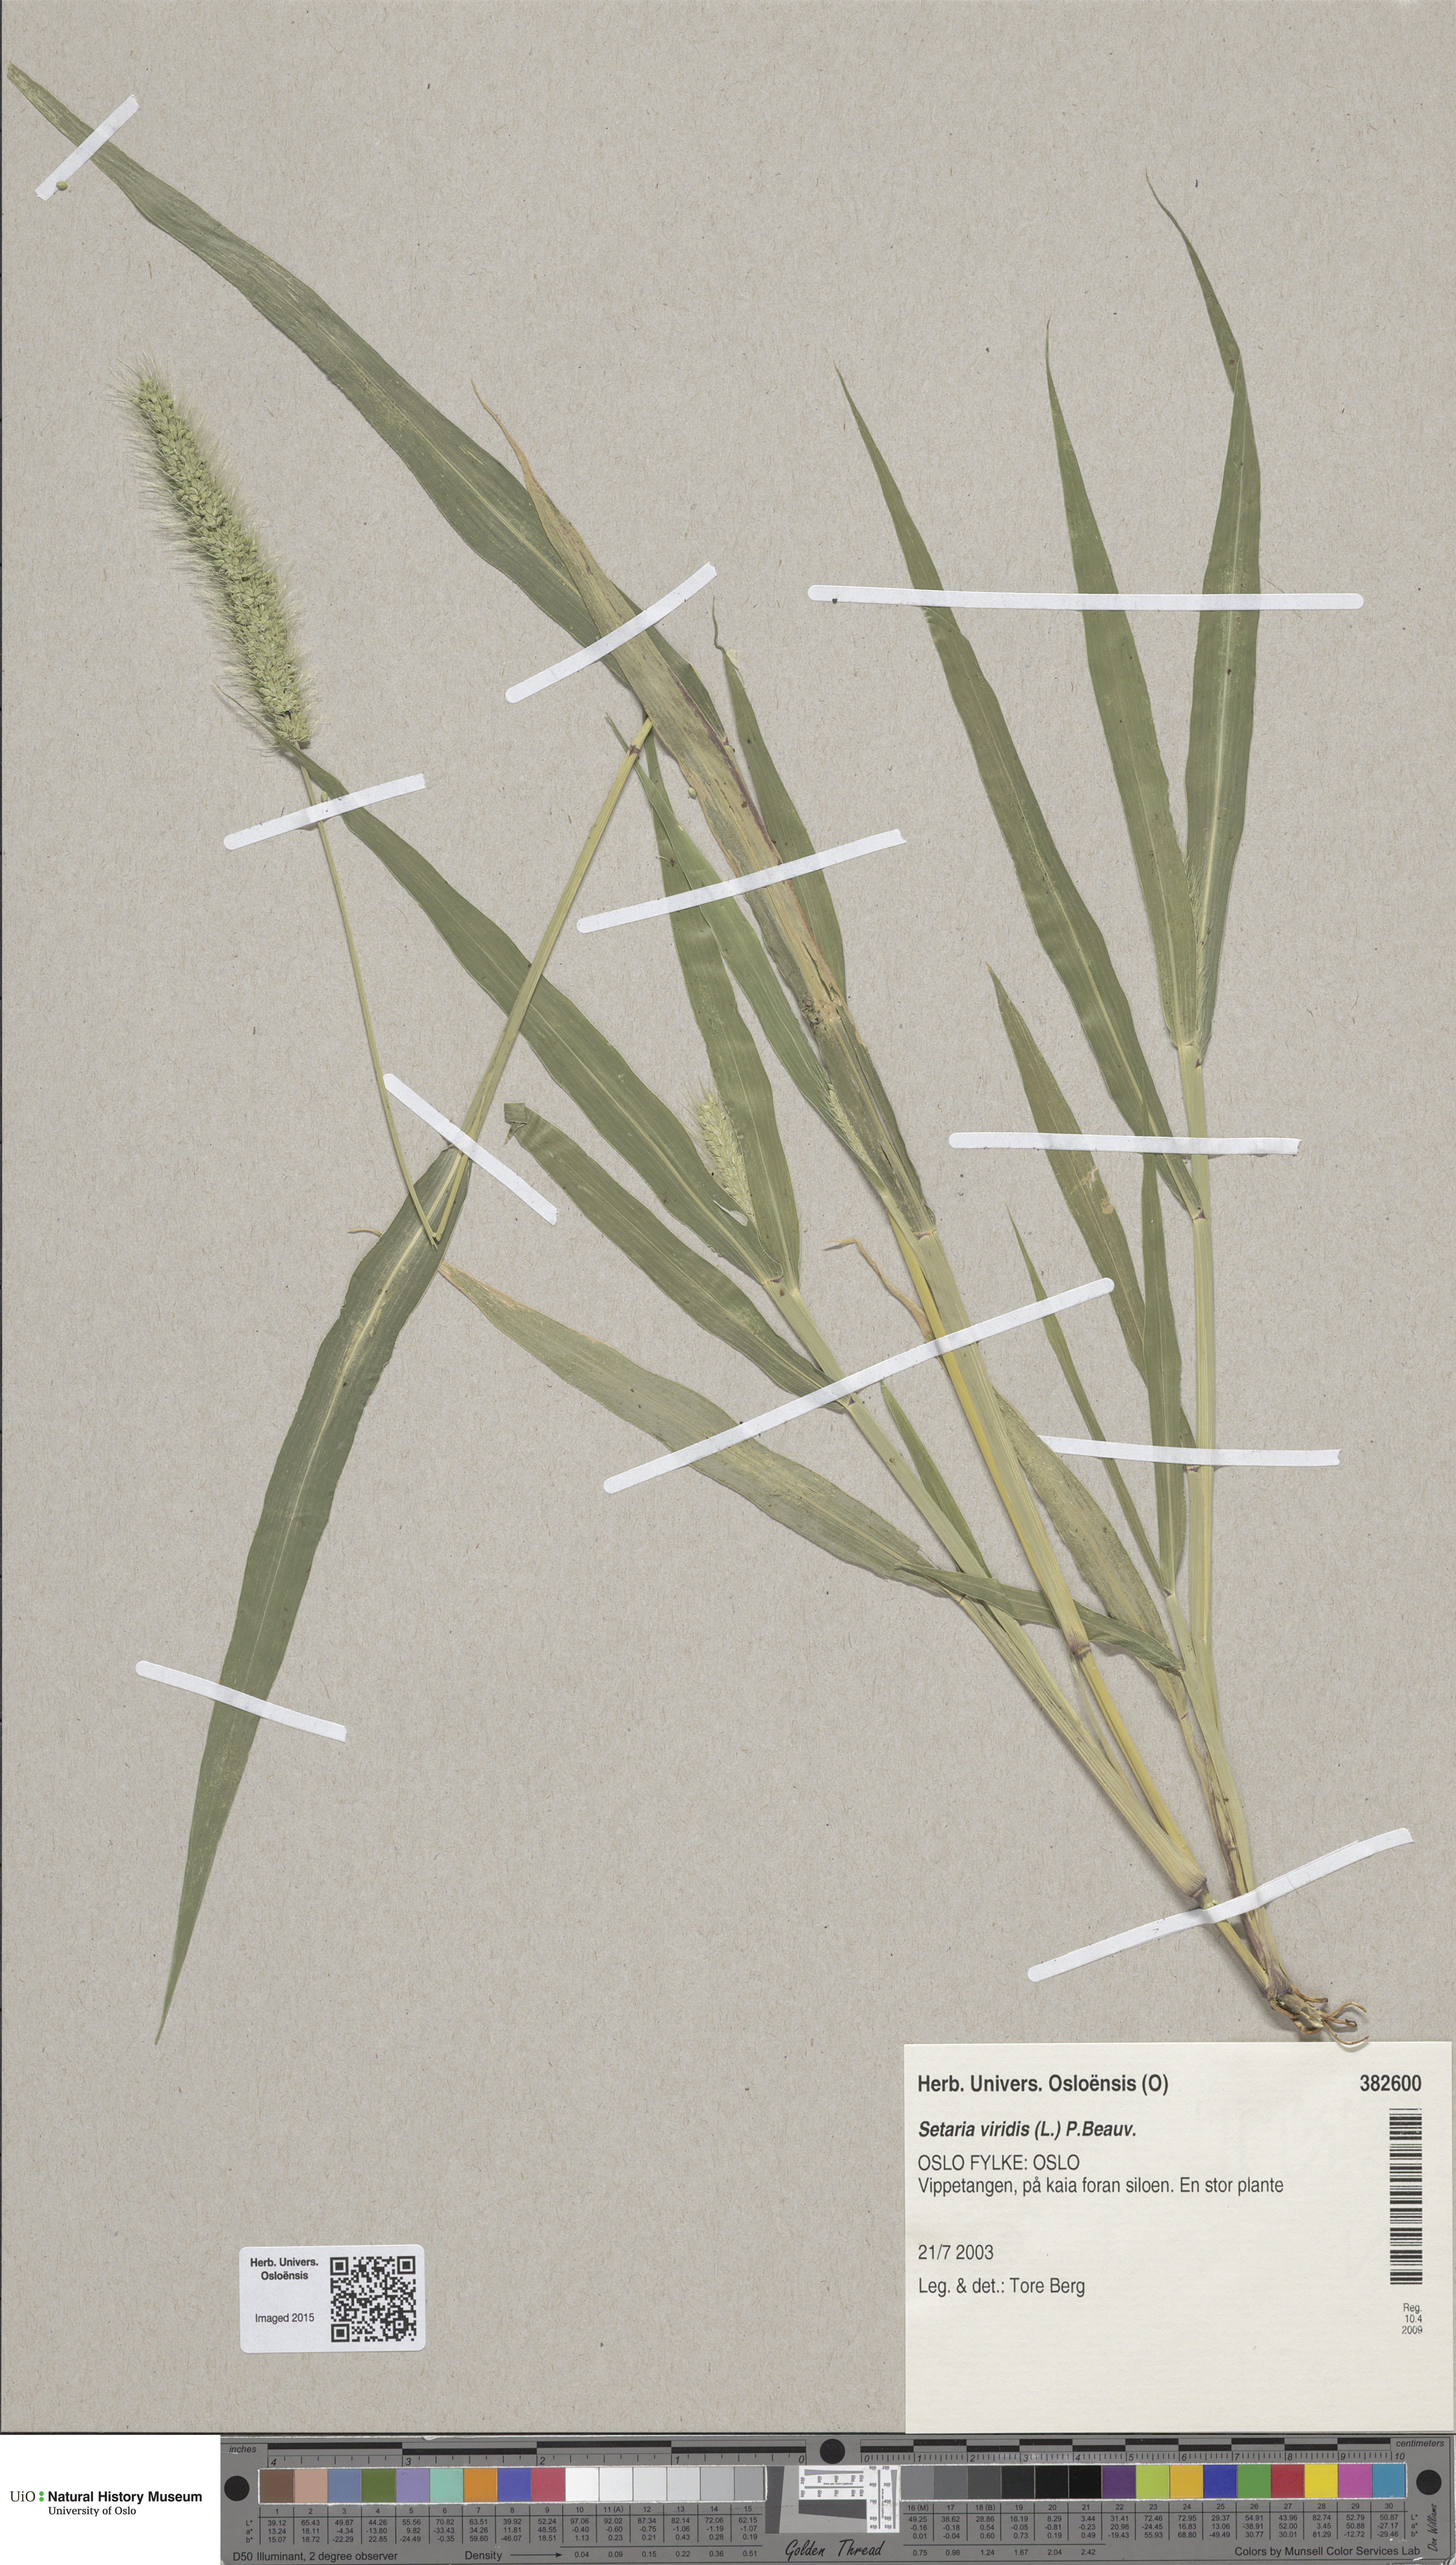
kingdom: Plantae
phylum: Tracheophyta
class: Liliopsida
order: Poales
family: Poaceae
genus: Setaria
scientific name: Setaria viridis
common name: Green bristlegrass
